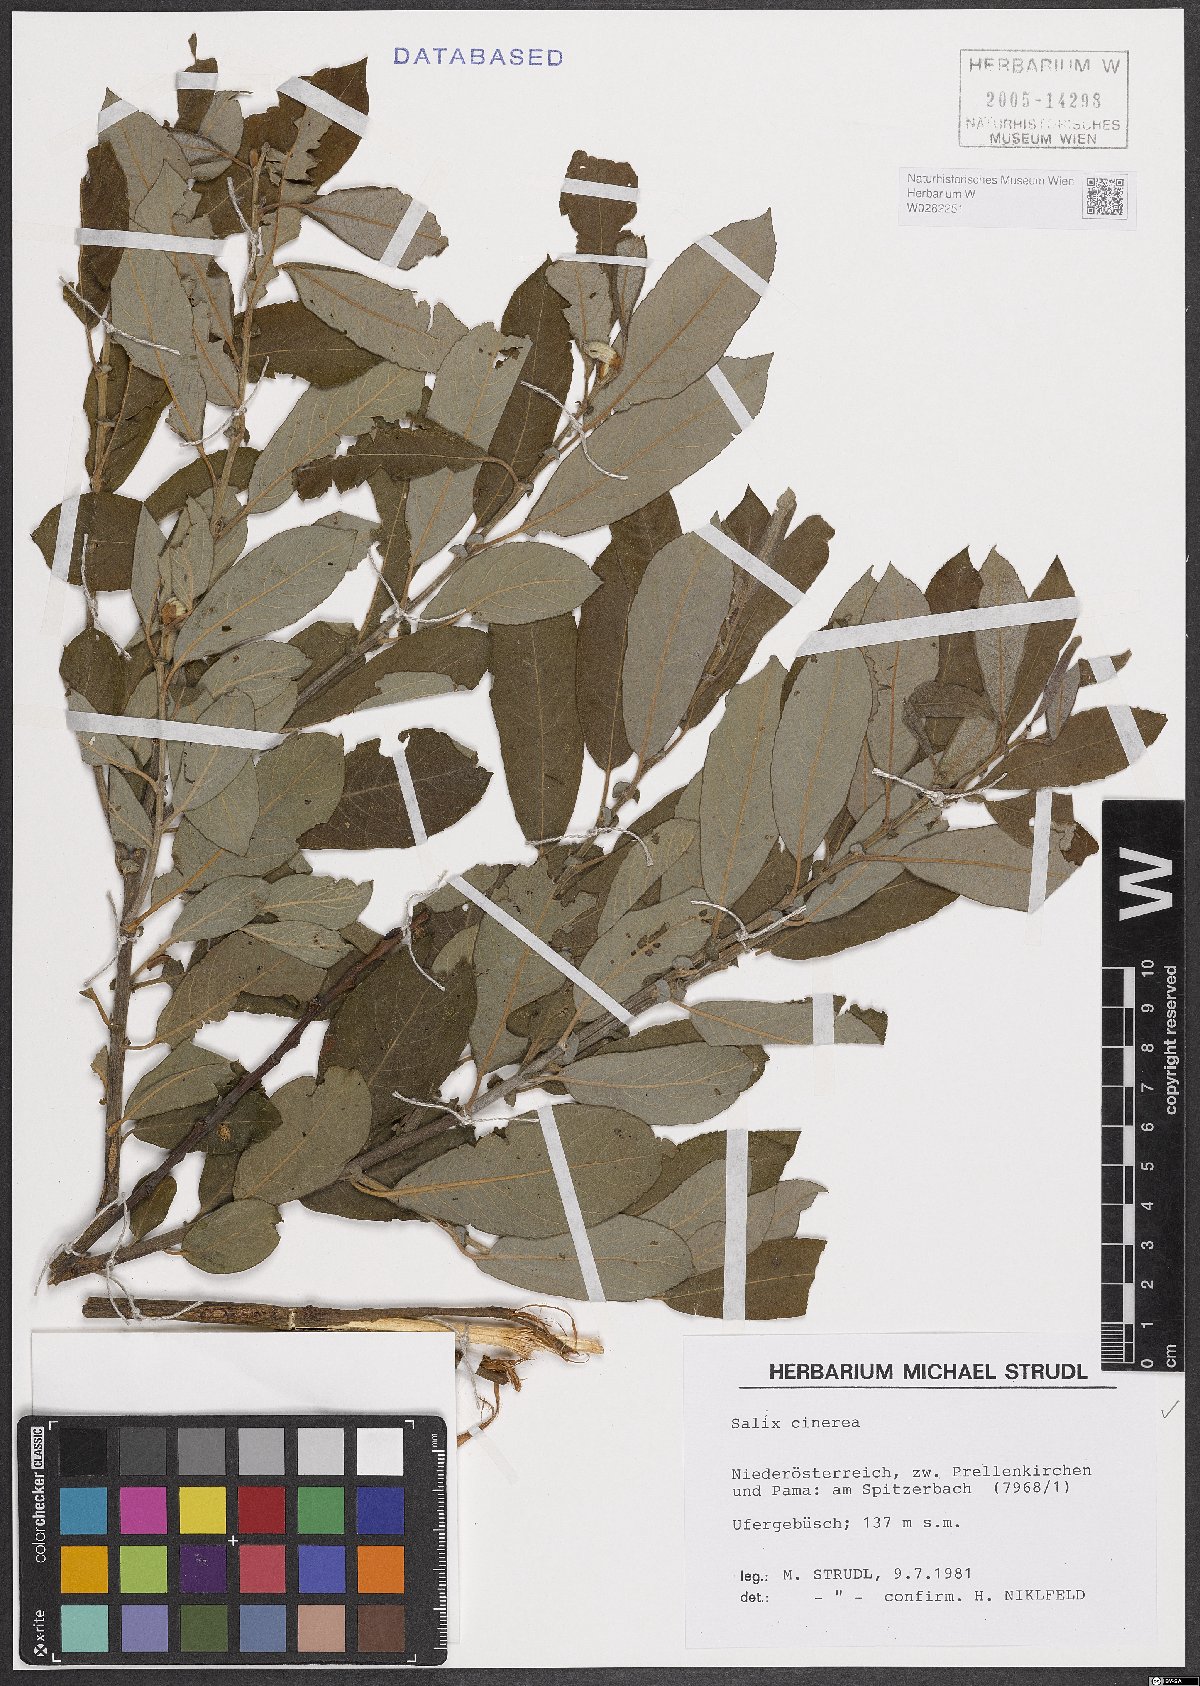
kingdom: Plantae
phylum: Tracheophyta
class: Magnoliopsida
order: Malpighiales
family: Salicaceae
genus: Salix
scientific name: Salix cinerea
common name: Common sallow
